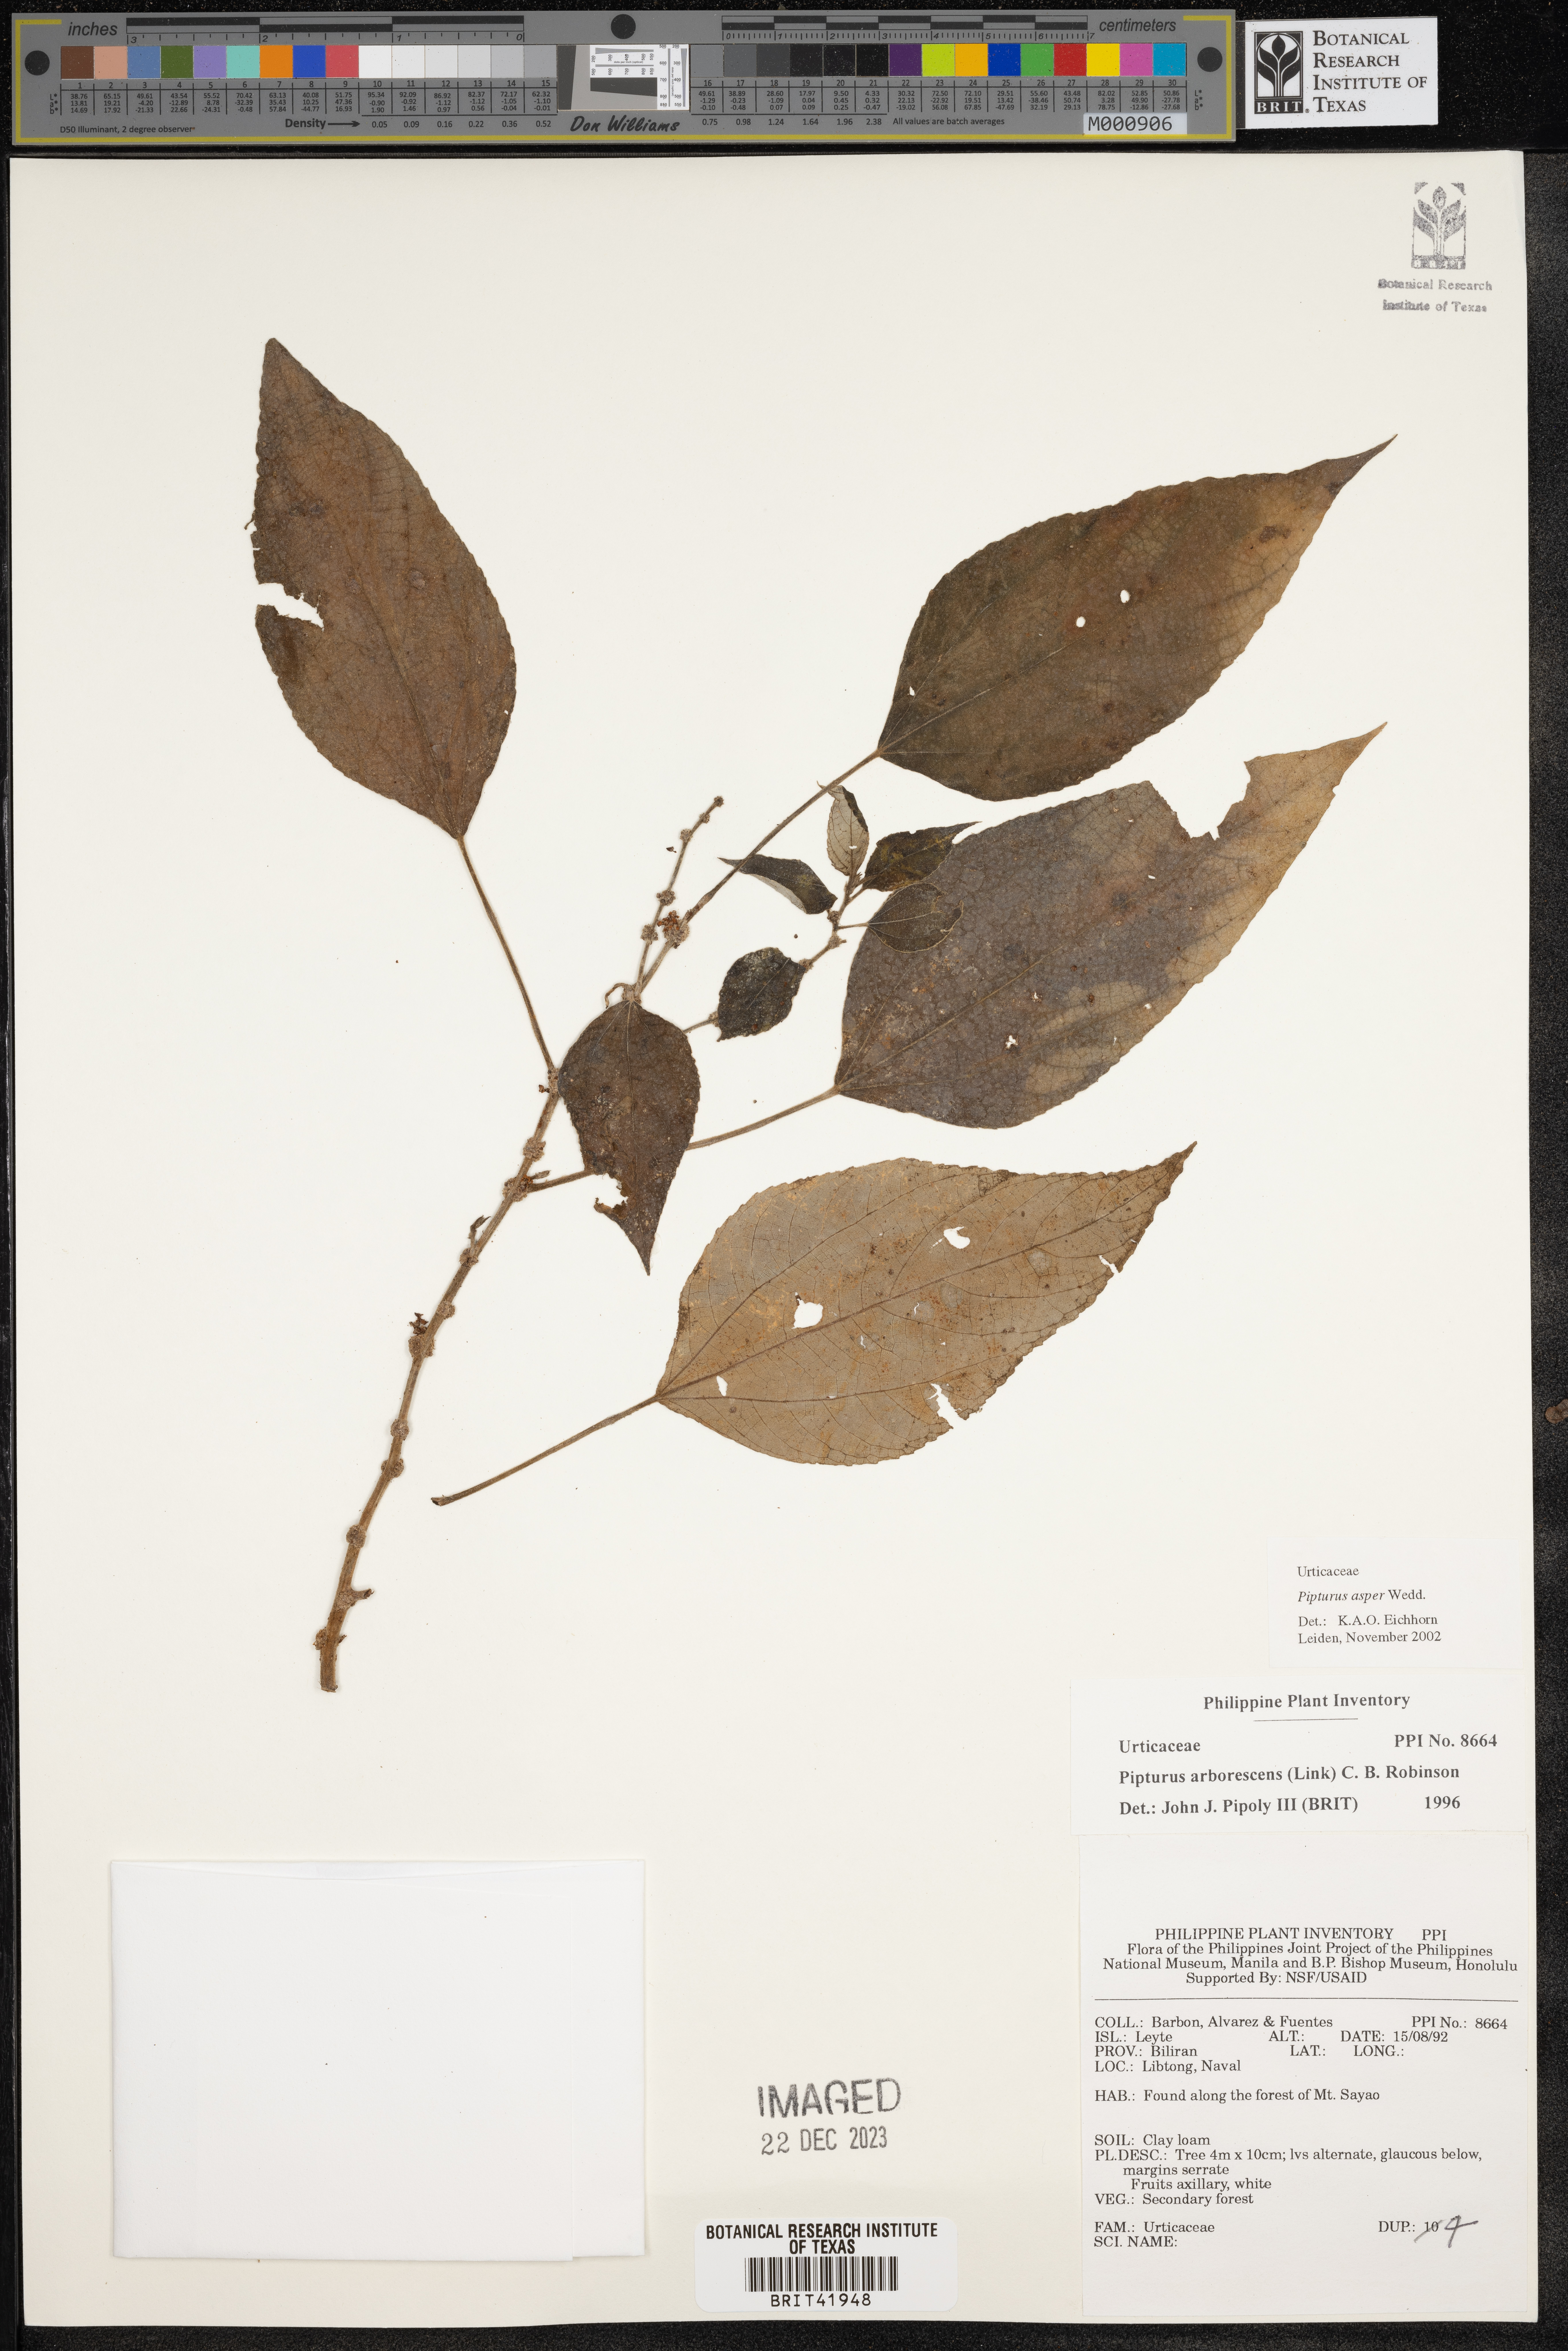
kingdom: Plantae
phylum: Tracheophyta
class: Magnoliopsida
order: Rosales
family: Urticaceae
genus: Pipturus
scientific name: Pipturus arborescens
